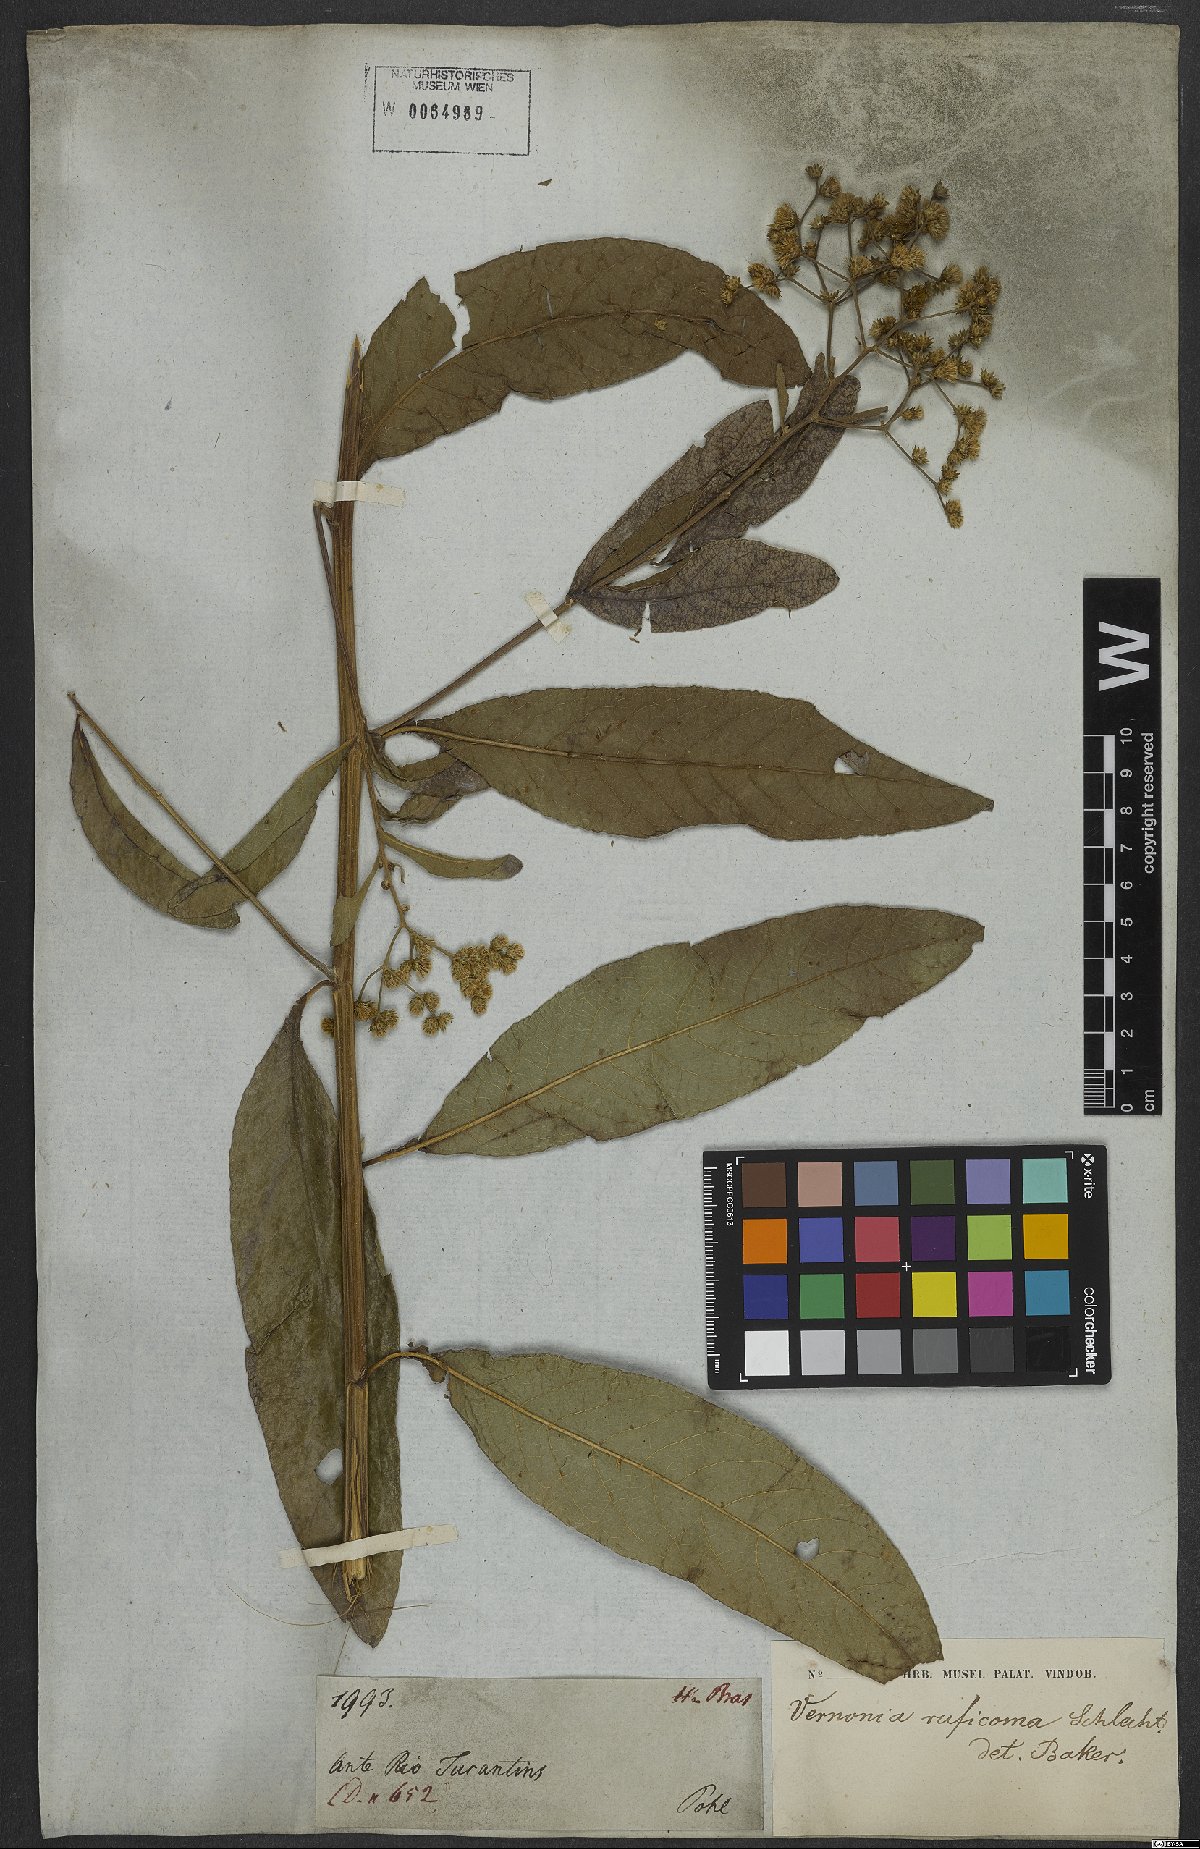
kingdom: Plantae
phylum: Tracheophyta
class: Magnoliopsida
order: Asterales
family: Asteraceae
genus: Vernonanthura
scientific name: Vernonanthura membranacea
